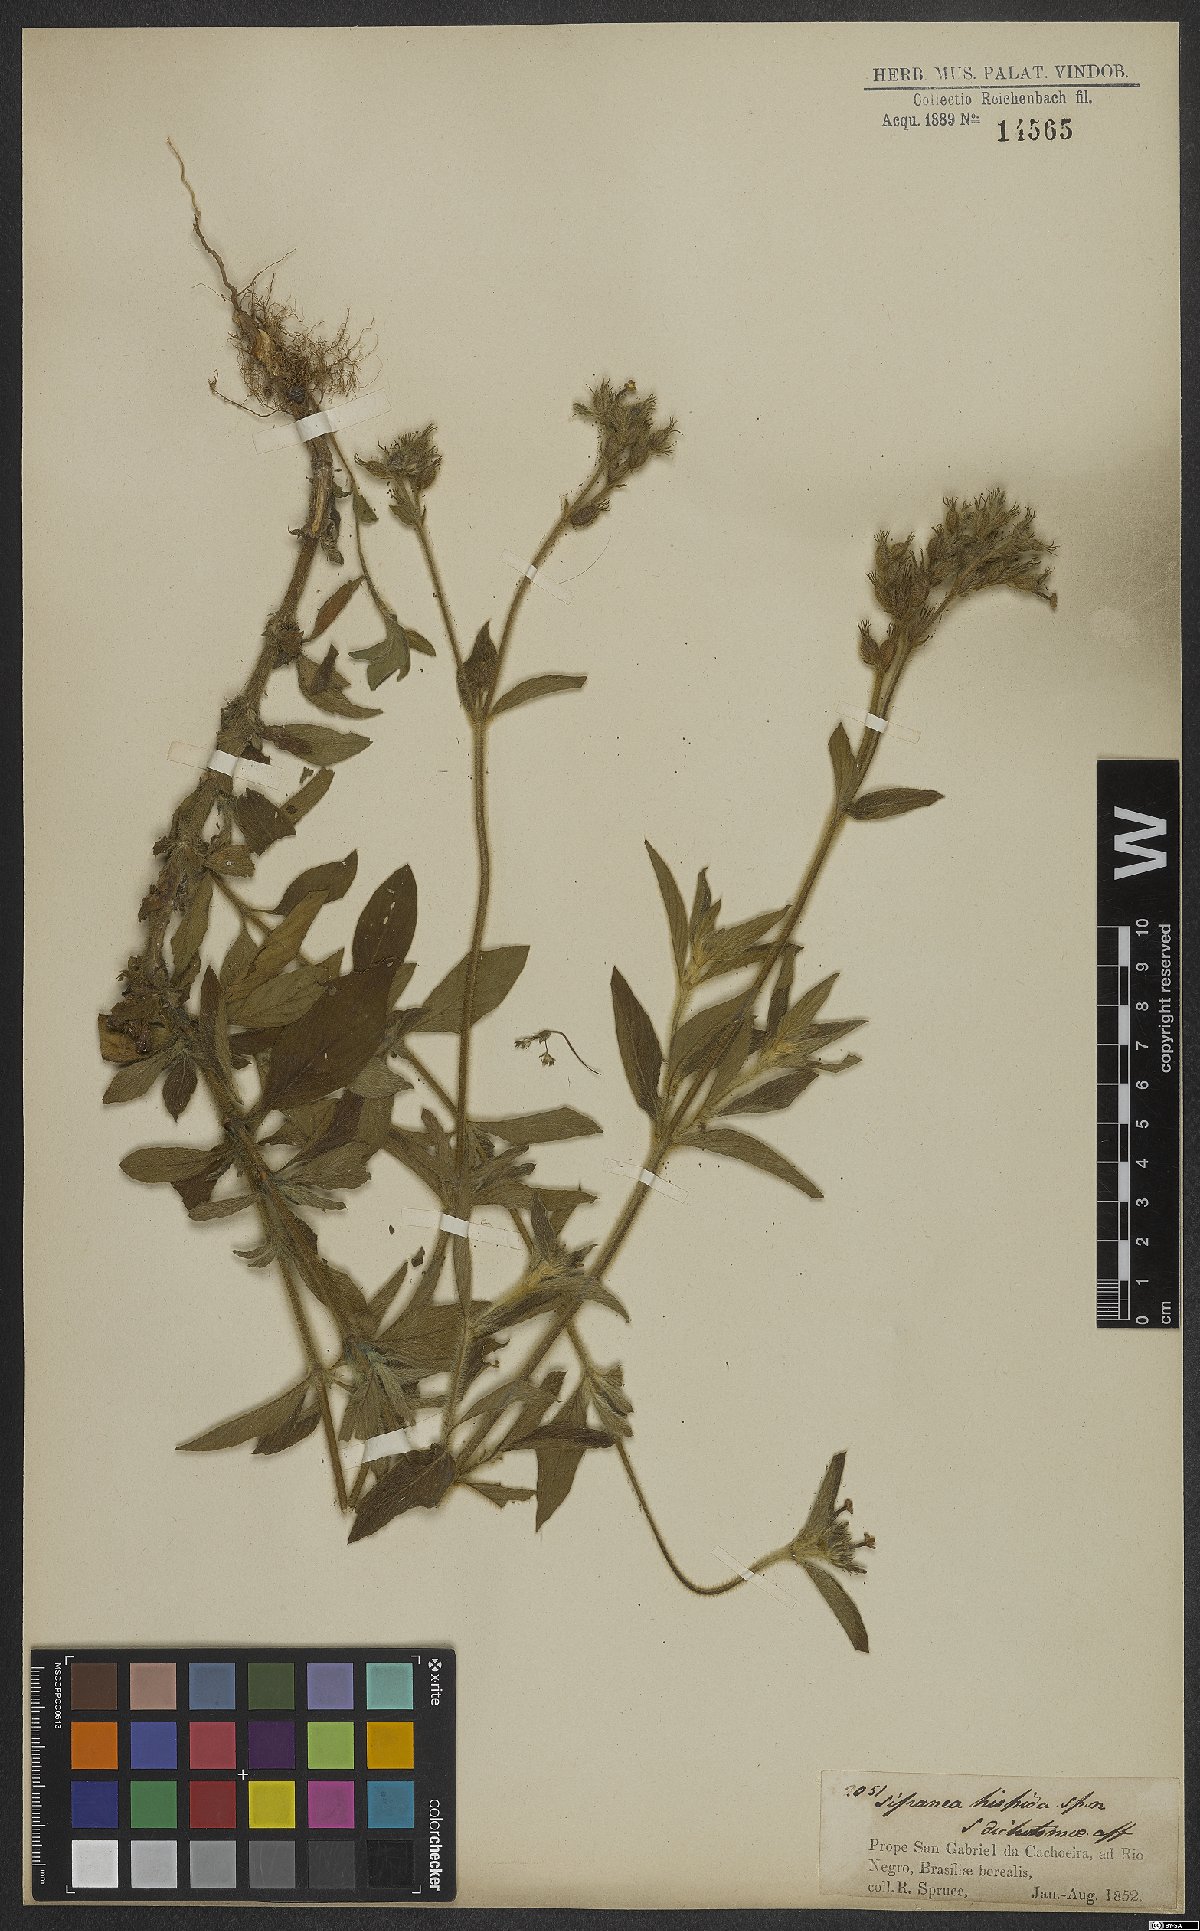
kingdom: Plantae
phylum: Tracheophyta
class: Magnoliopsida
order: Gentianales
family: Rubiaceae
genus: Sipanea
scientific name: Sipanea hispida
